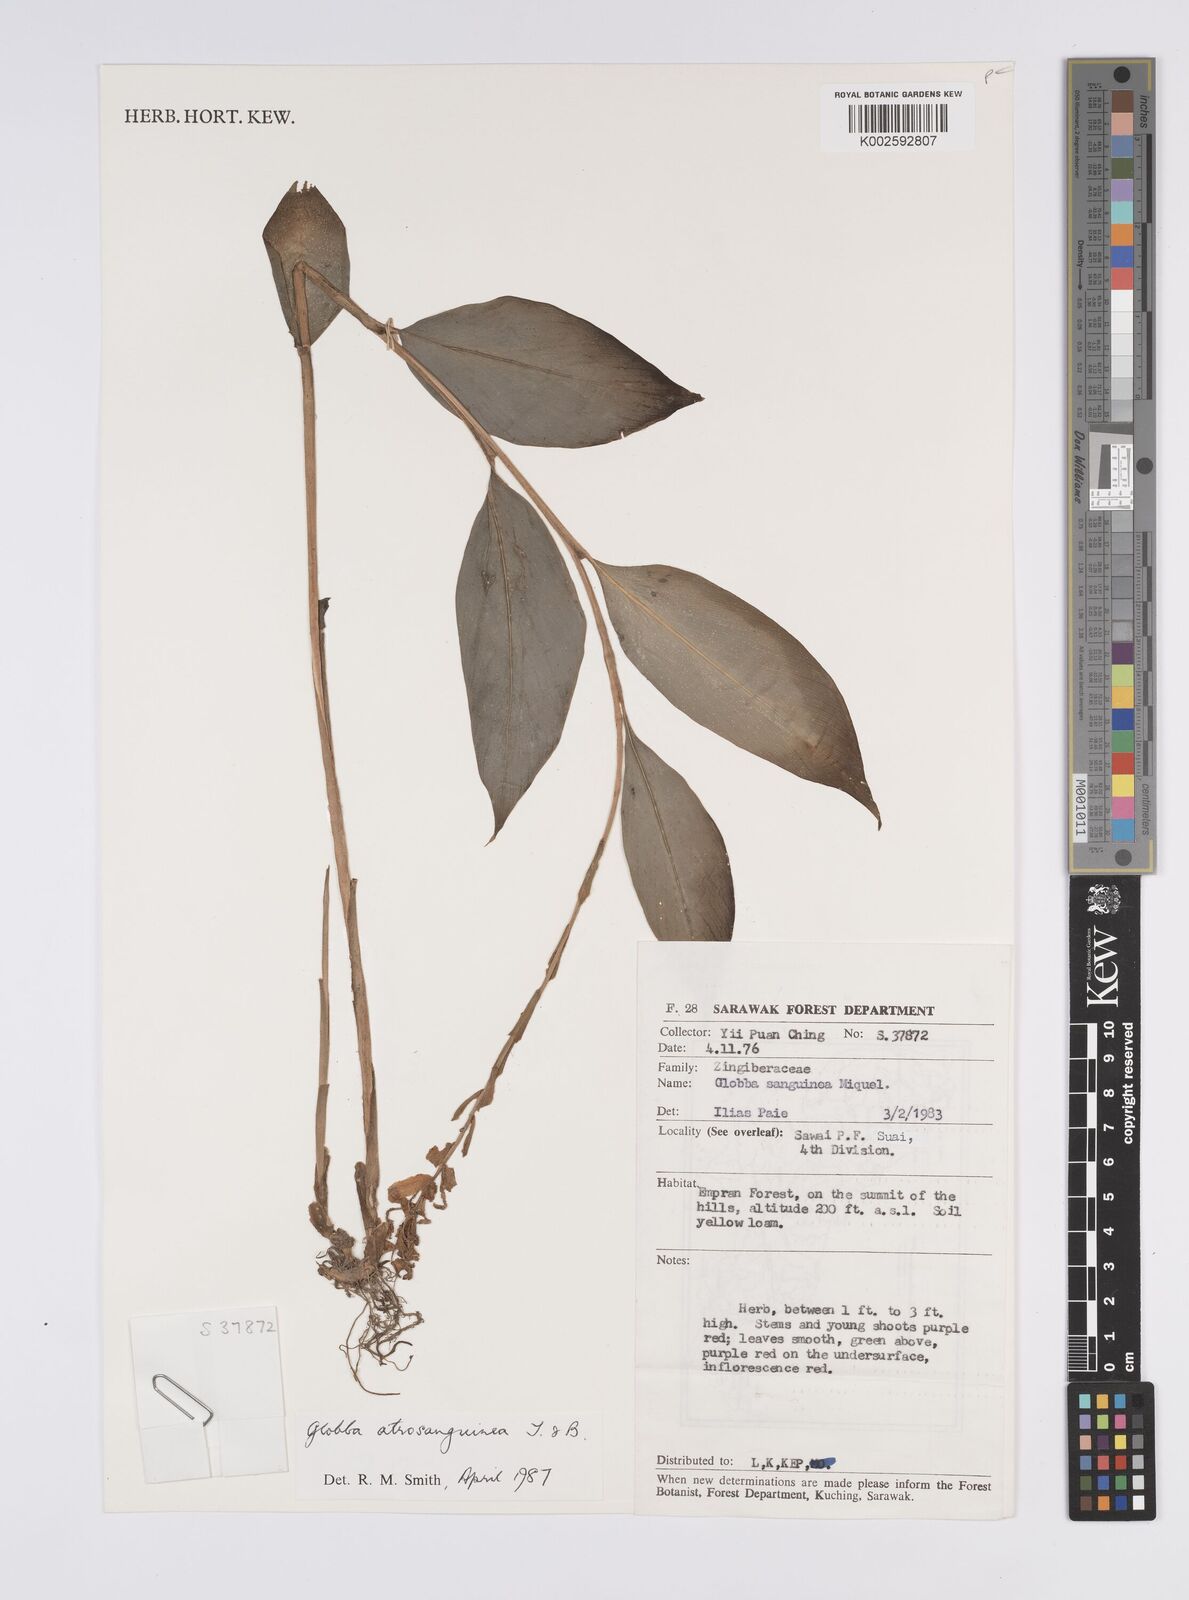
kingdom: Plantae
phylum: Tracheophyta
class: Liliopsida
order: Zingiberales
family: Zingiberaceae
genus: Globba
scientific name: Globba atrosanguinea
